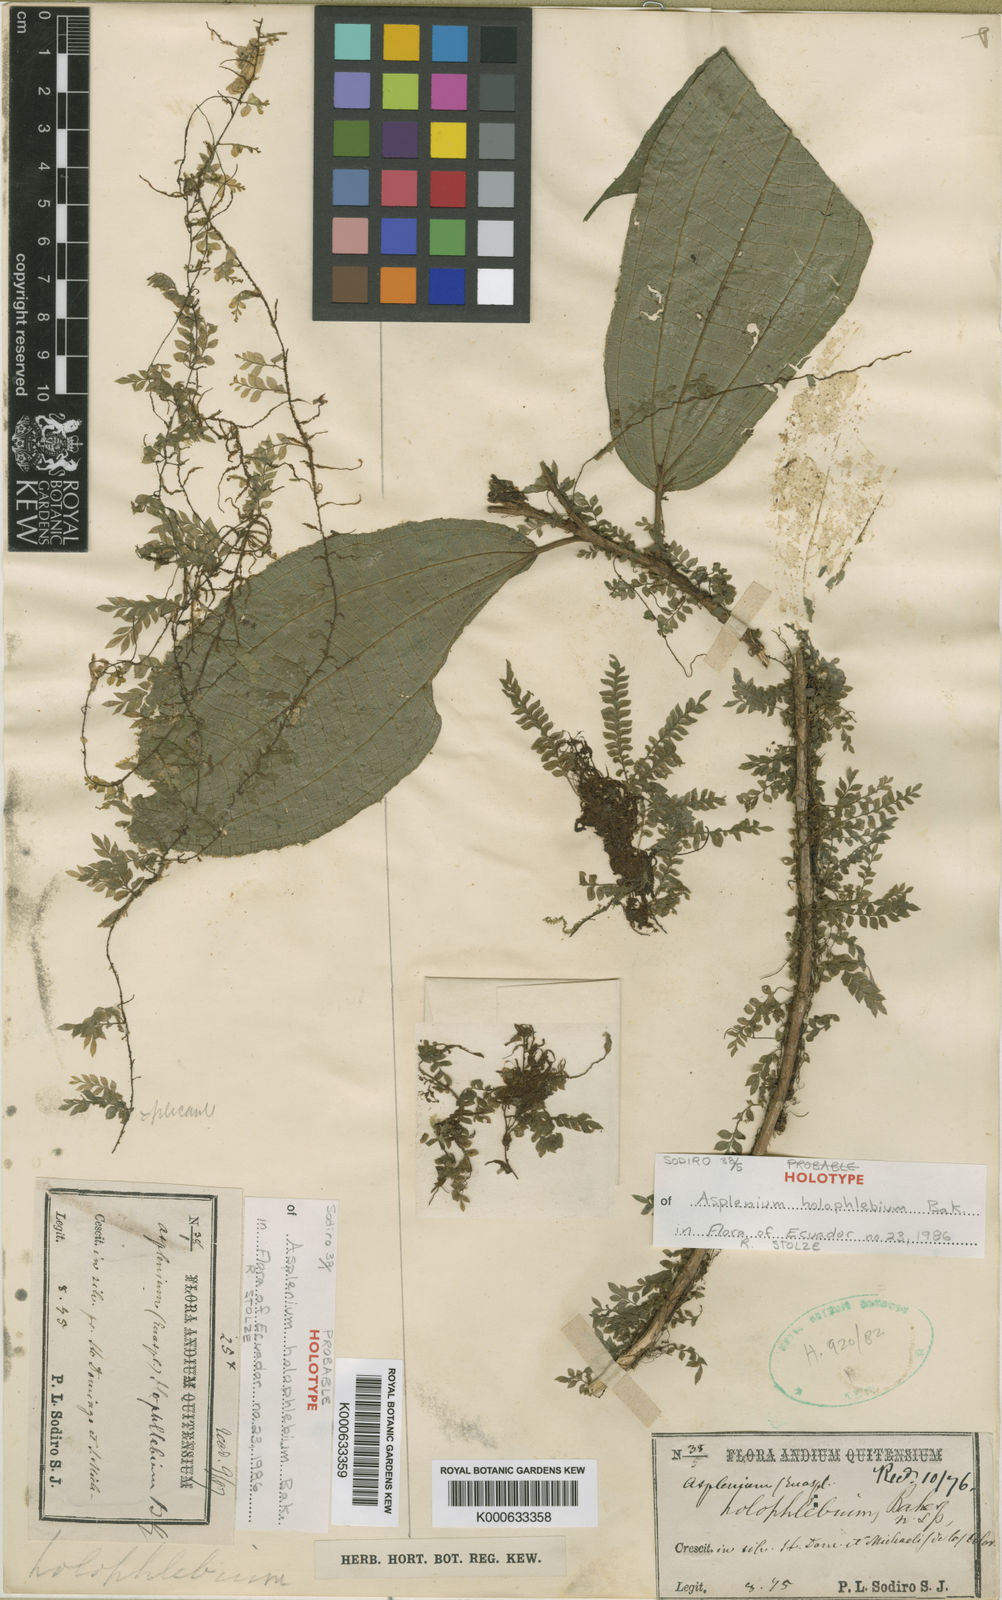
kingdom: Plantae
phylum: Tracheophyta
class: Polypodiopsida
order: Polypodiales
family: Aspleniaceae
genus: Asplenium
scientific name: Asplenium griffithianum
